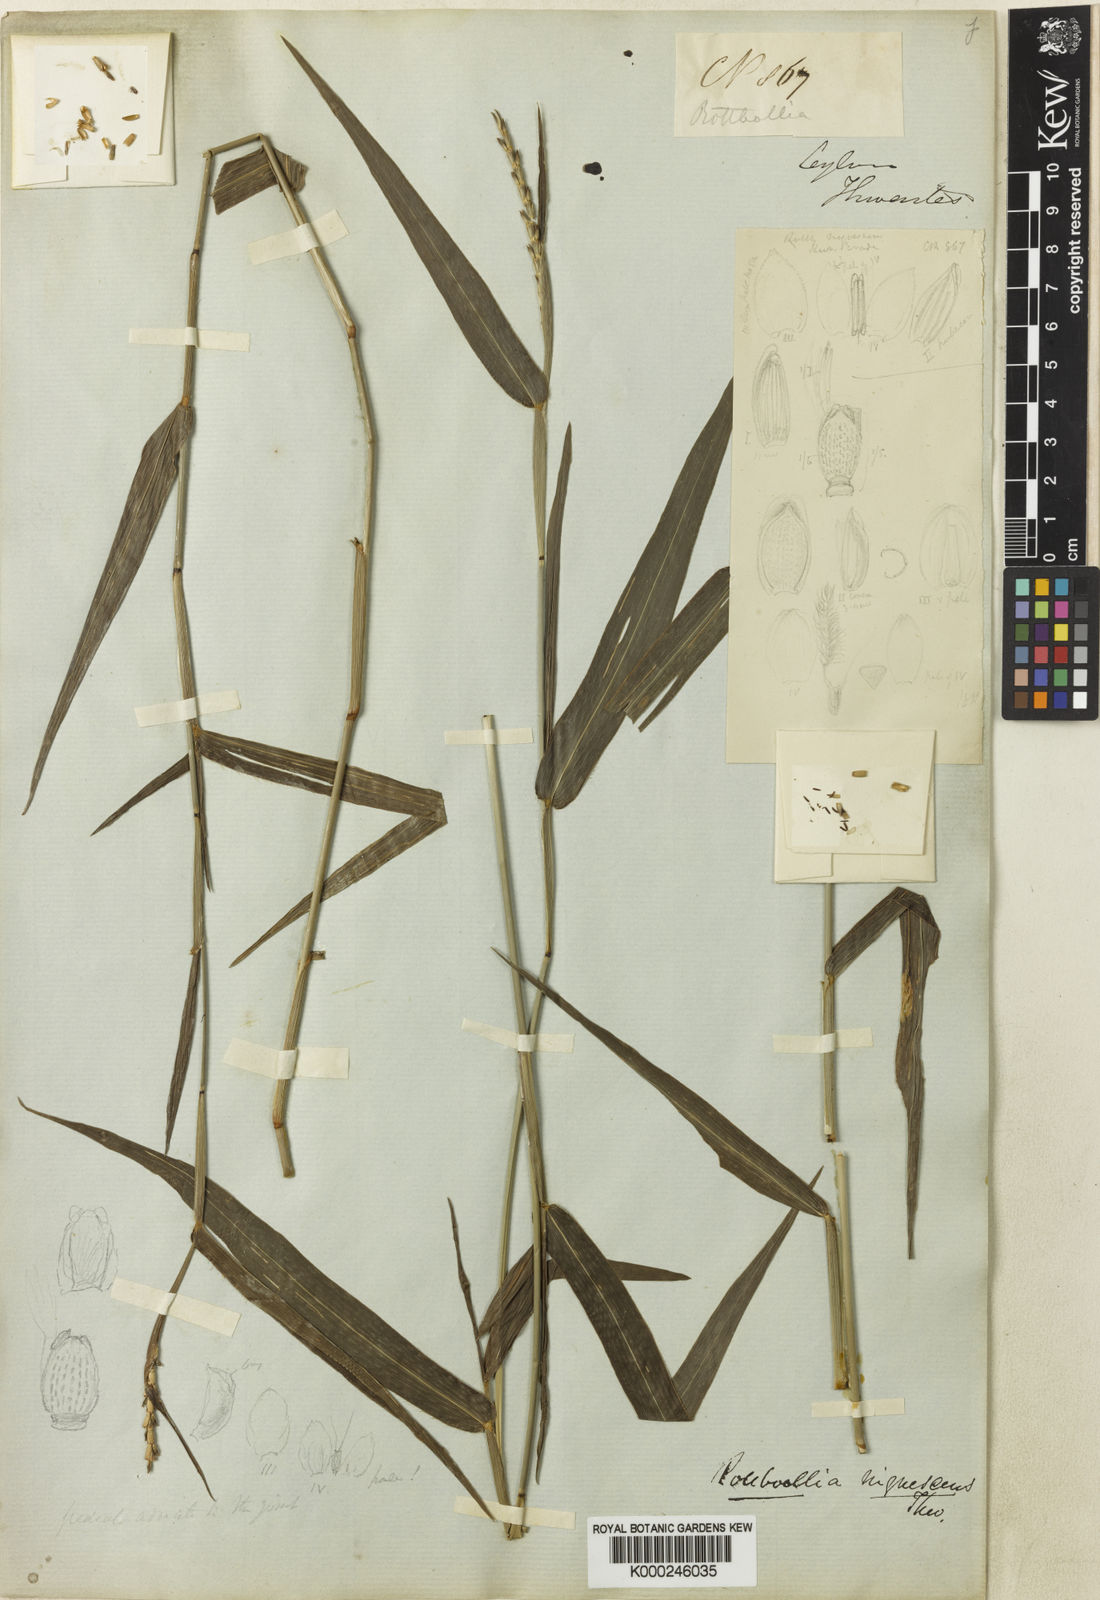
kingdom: Plantae
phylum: Tracheophyta
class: Liliopsida
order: Poales
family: Poaceae
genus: Heteropholis
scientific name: Heteropholis nigrescens
